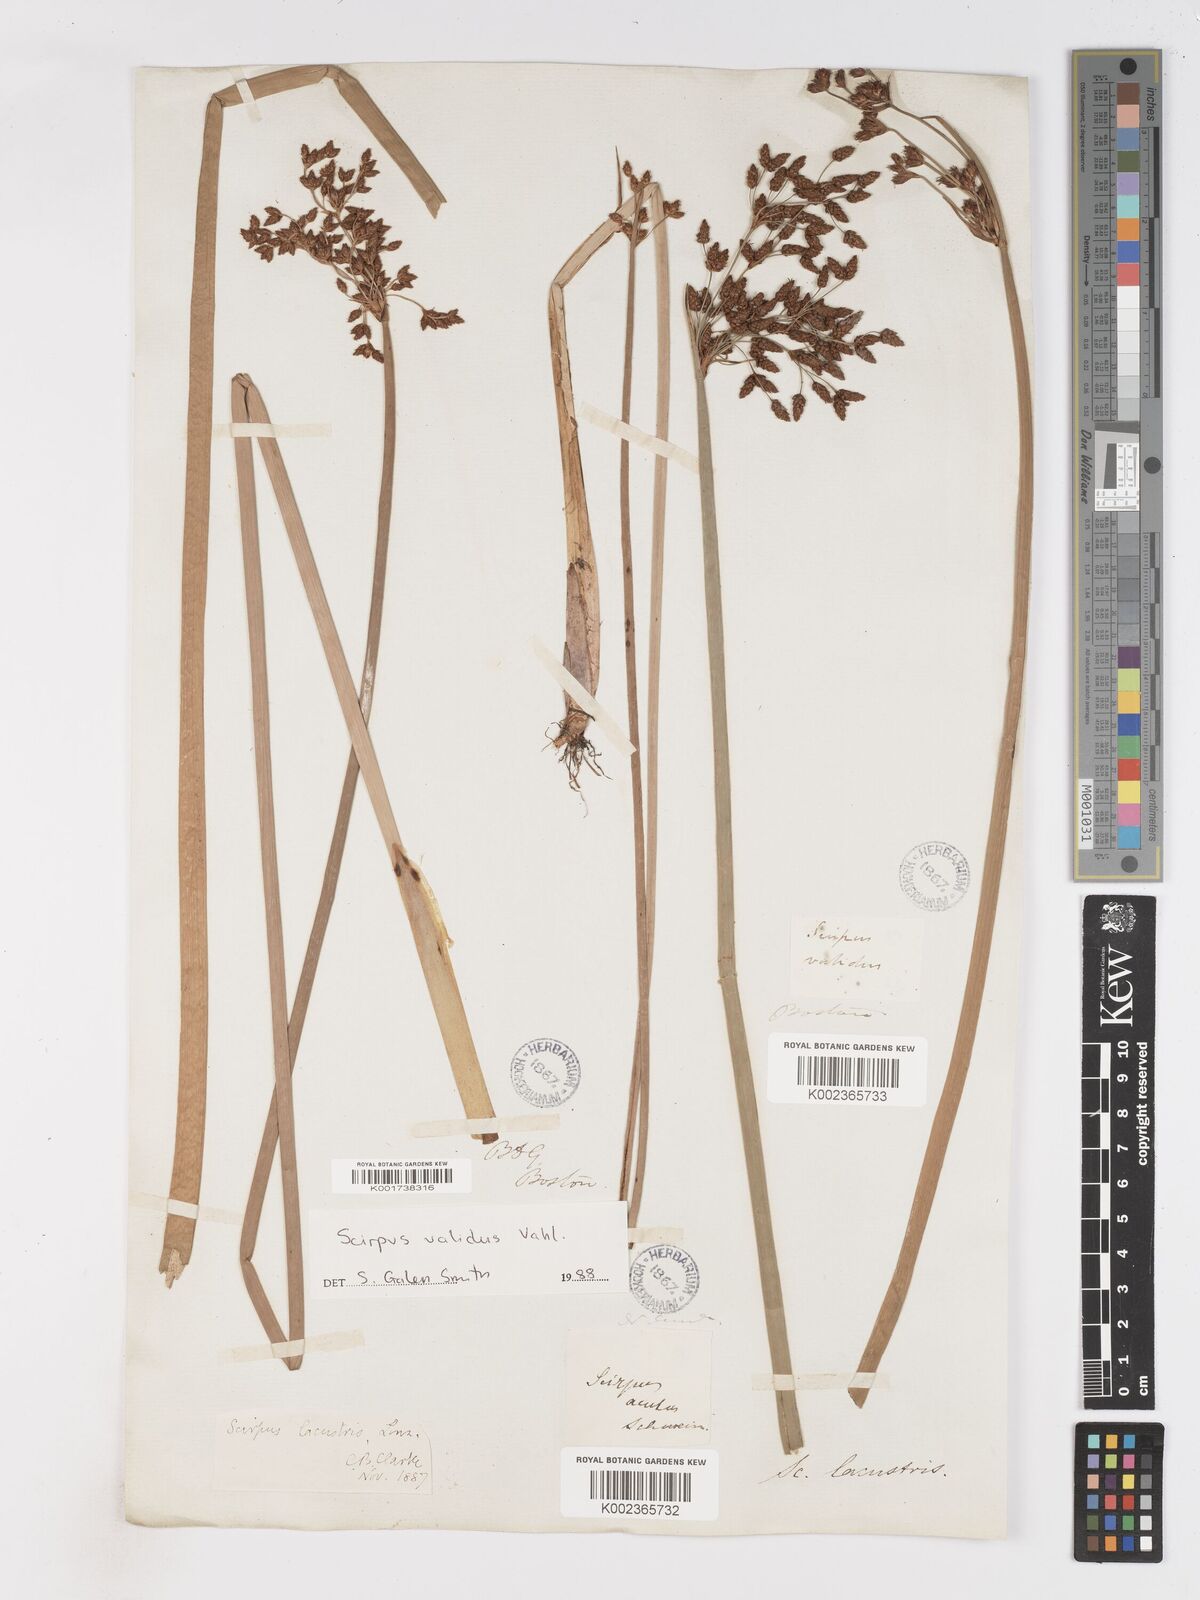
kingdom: Plantae
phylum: Tracheophyta
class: Liliopsida
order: Poales
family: Cyperaceae
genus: Schoenoplectus
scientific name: Schoenoplectus lacustris
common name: Common club-rush
